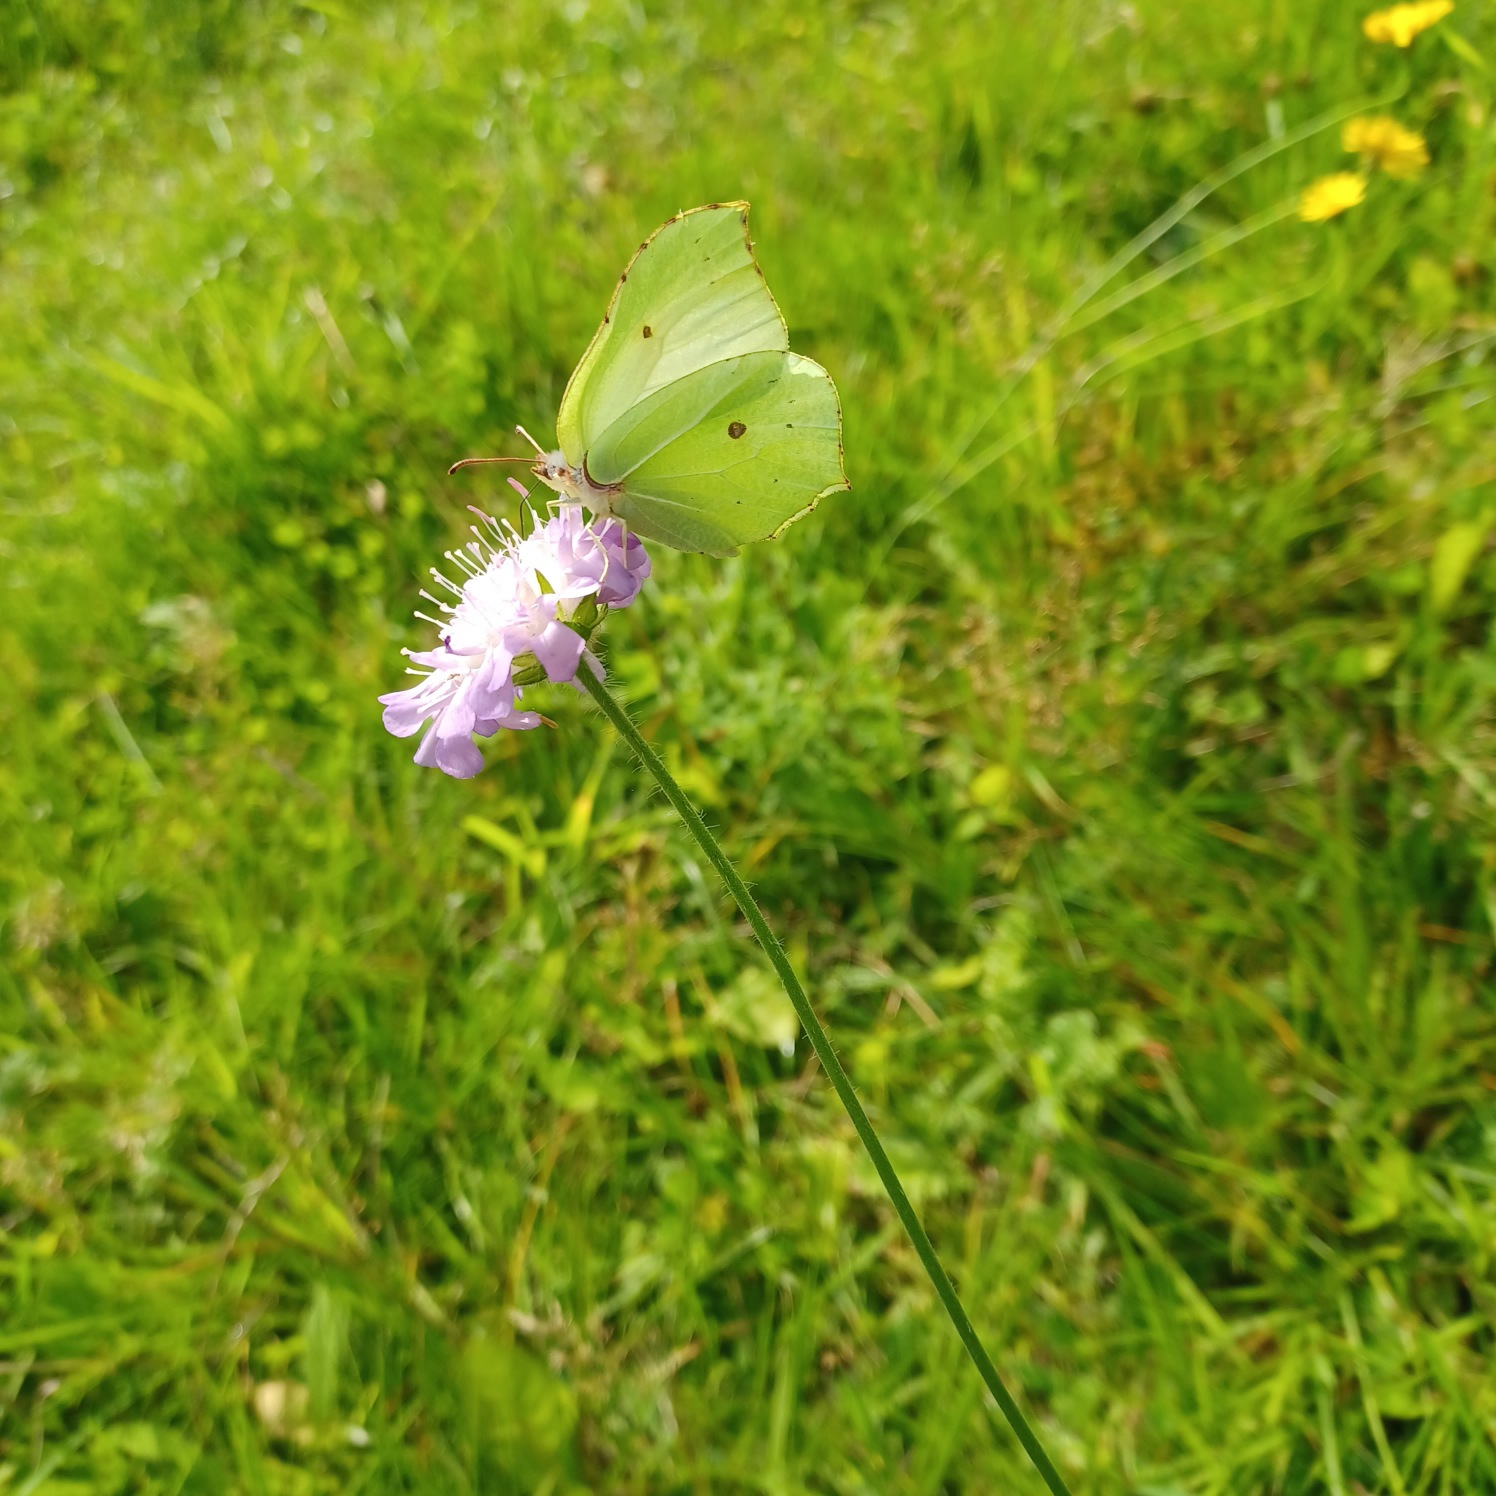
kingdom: Animalia
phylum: Arthropoda
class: Insecta
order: Lepidoptera
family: Pieridae
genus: Gonepteryx
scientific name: Gonepteryx rhamni
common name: Citronsommerfugl
